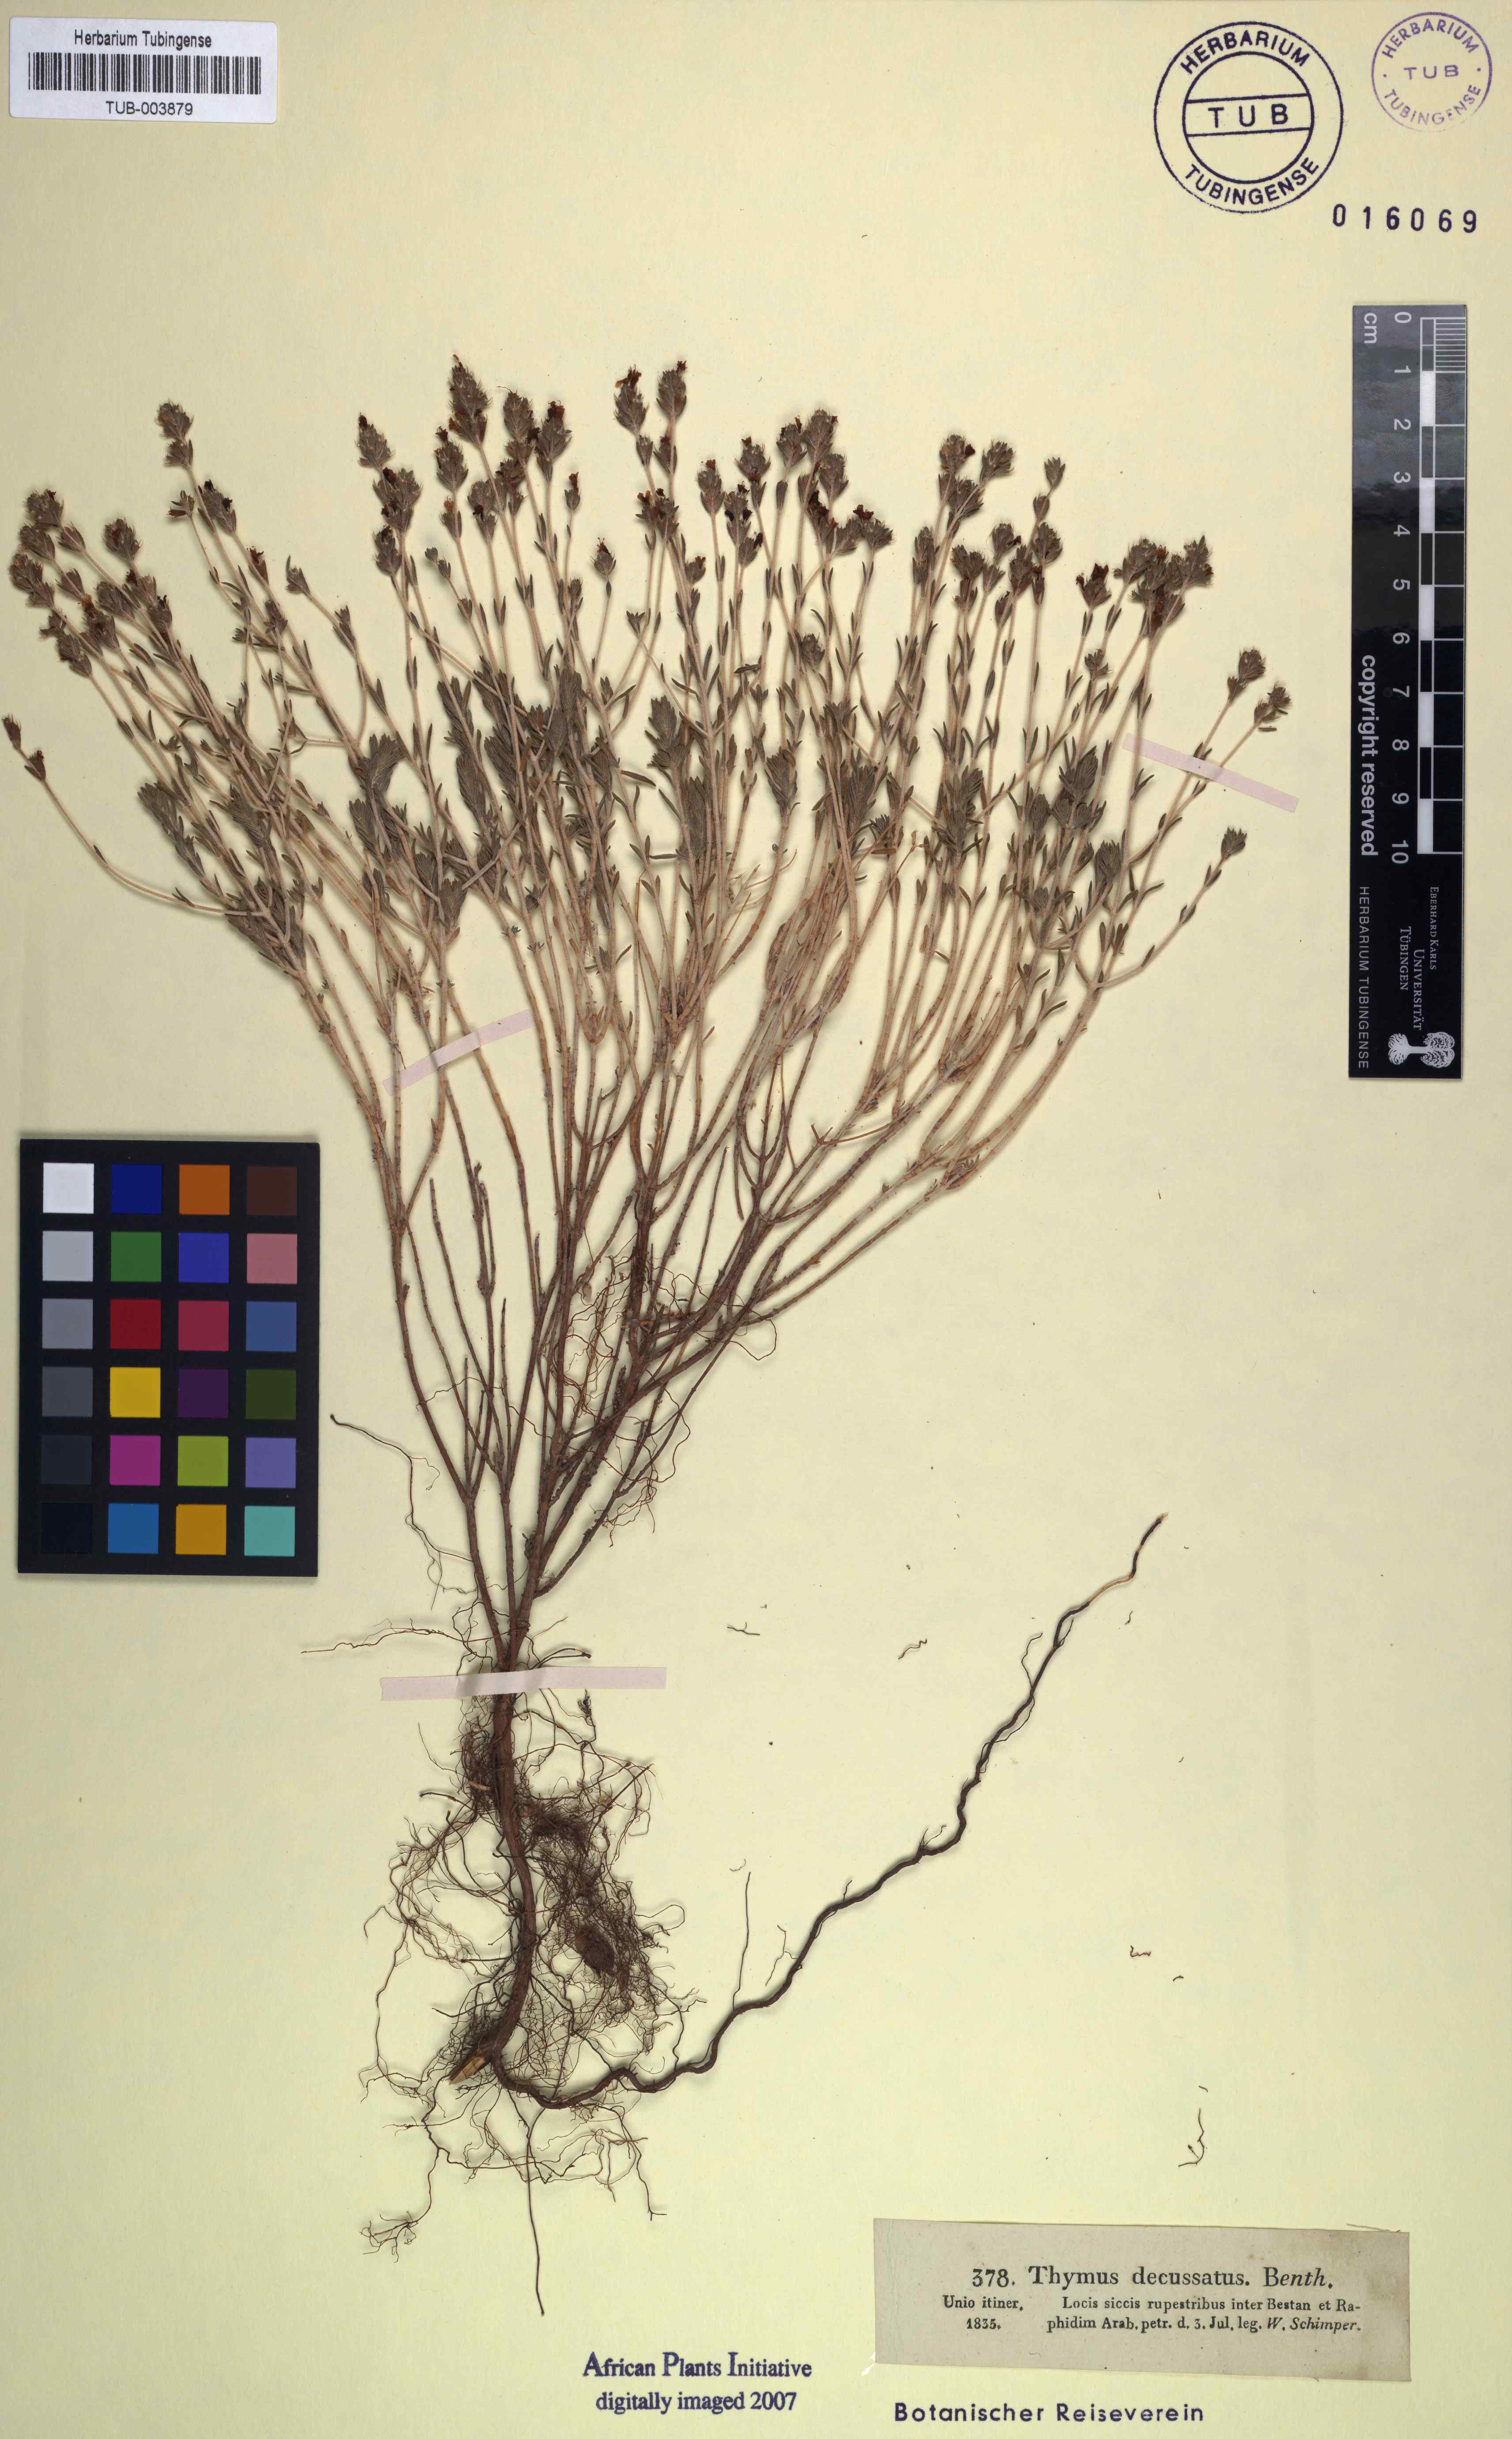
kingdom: Plantae
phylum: Tracheophyta
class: Magnoliopsida
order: Lamiales
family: Lamiaceae
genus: Thymus
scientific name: Thymus decussatus
